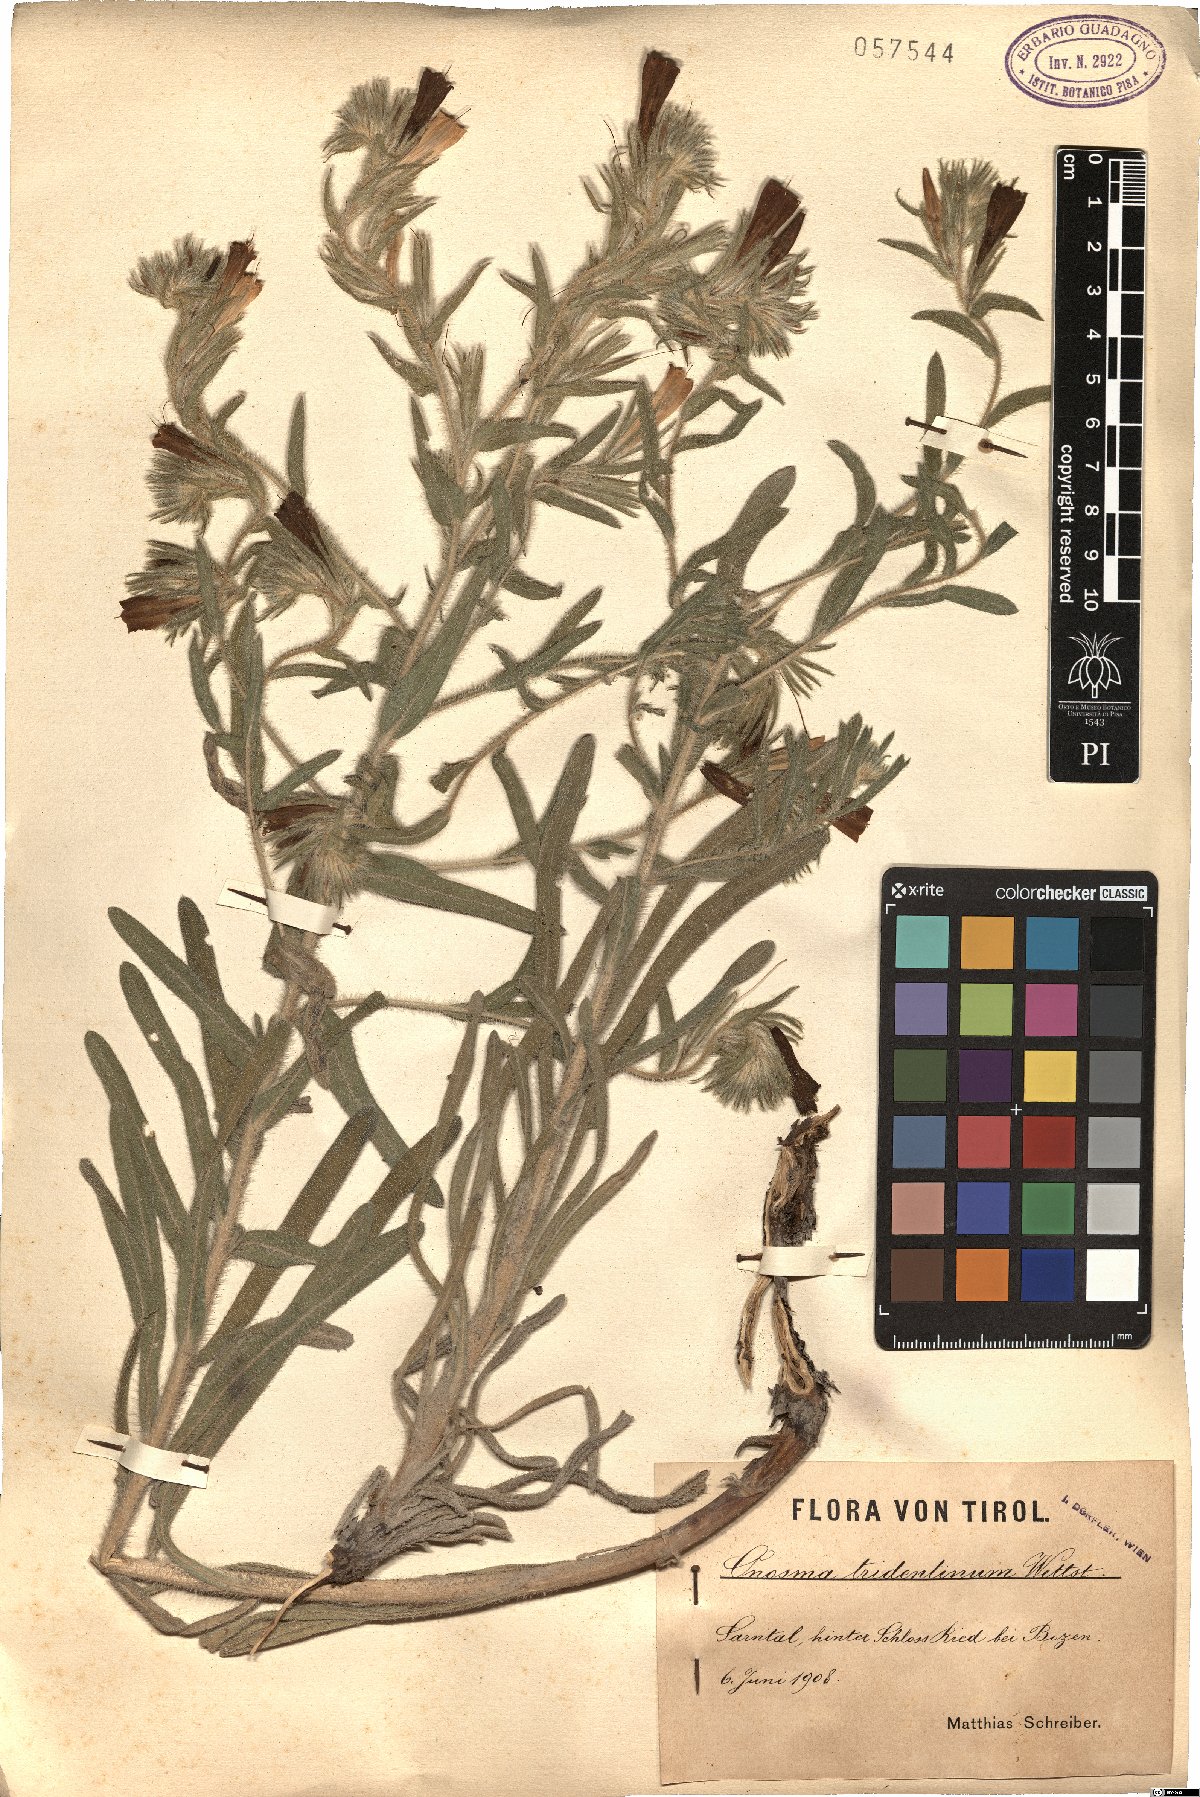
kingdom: Plantae
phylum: Tracheophyta
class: Magnoliopsida
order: Boraginales
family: Boraginaceae
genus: Onosma
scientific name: Onosma pseudoarenaria
